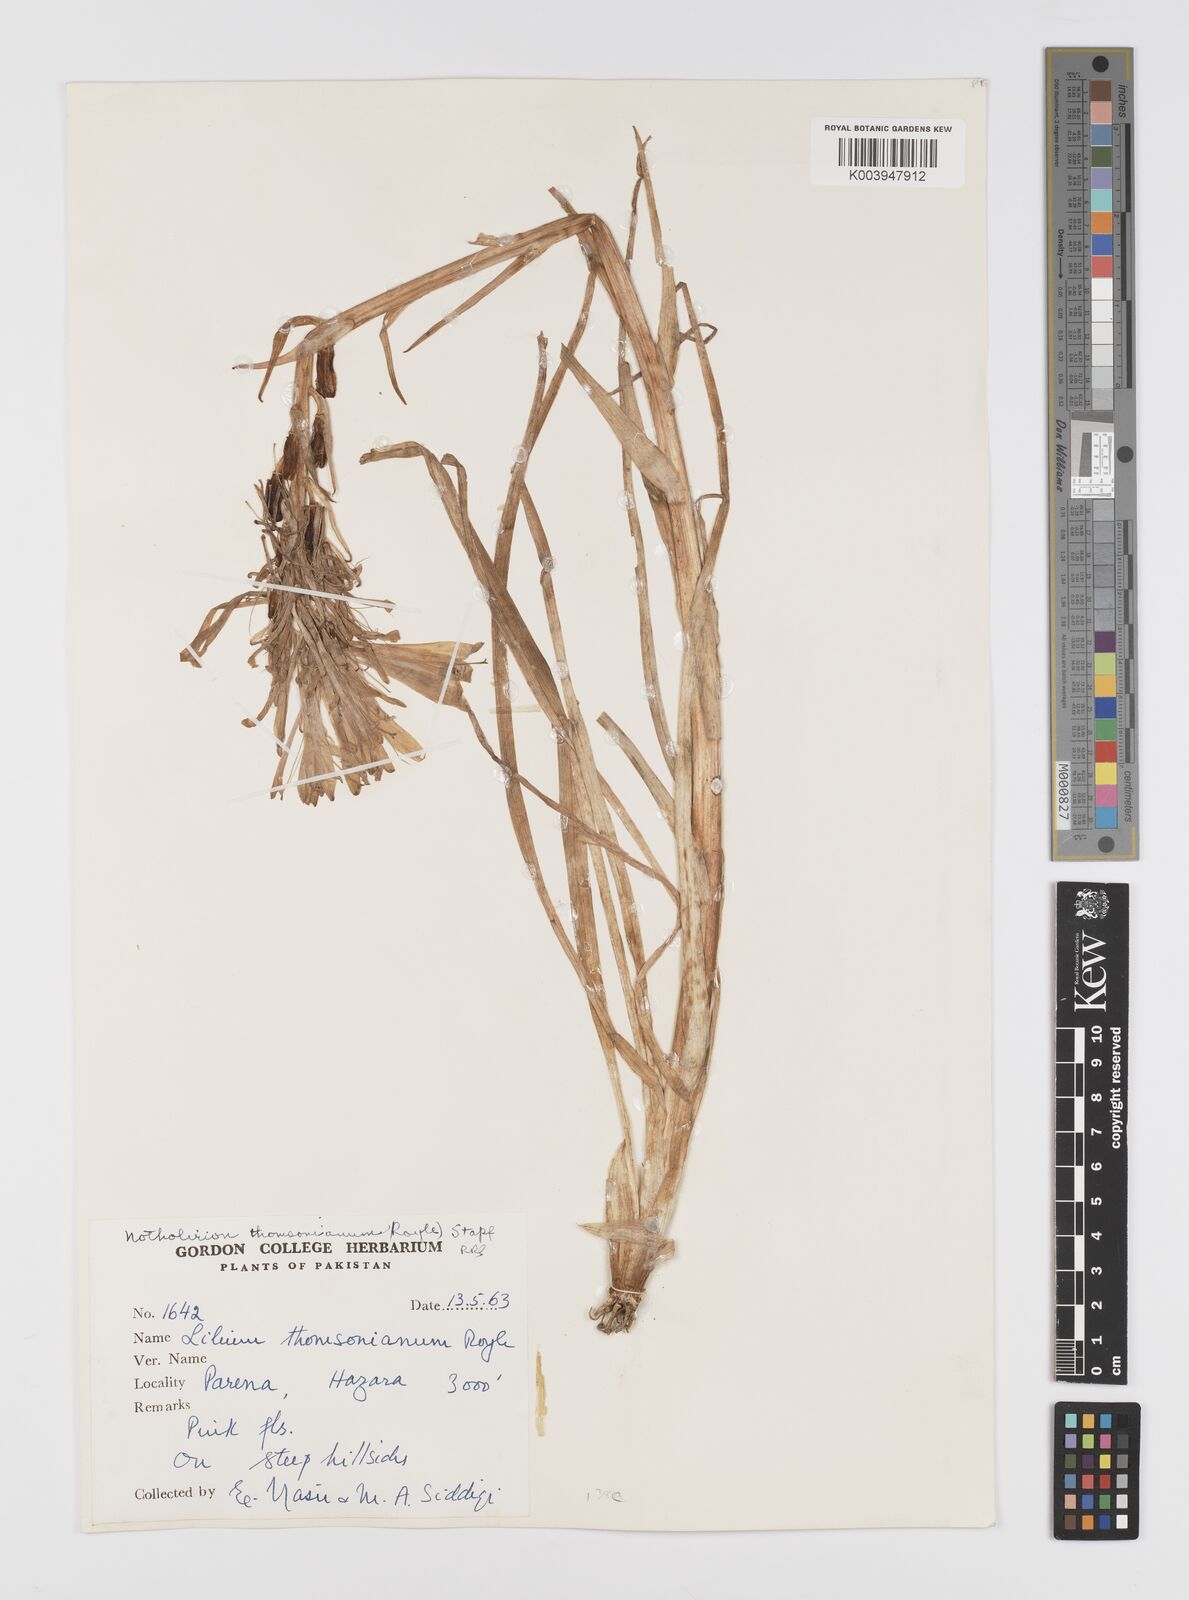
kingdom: Plantae
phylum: Tracheophyta
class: Liliopsida
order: Liliales
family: Liliaceae
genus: Notholirion
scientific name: Notholirion thomsonianum
